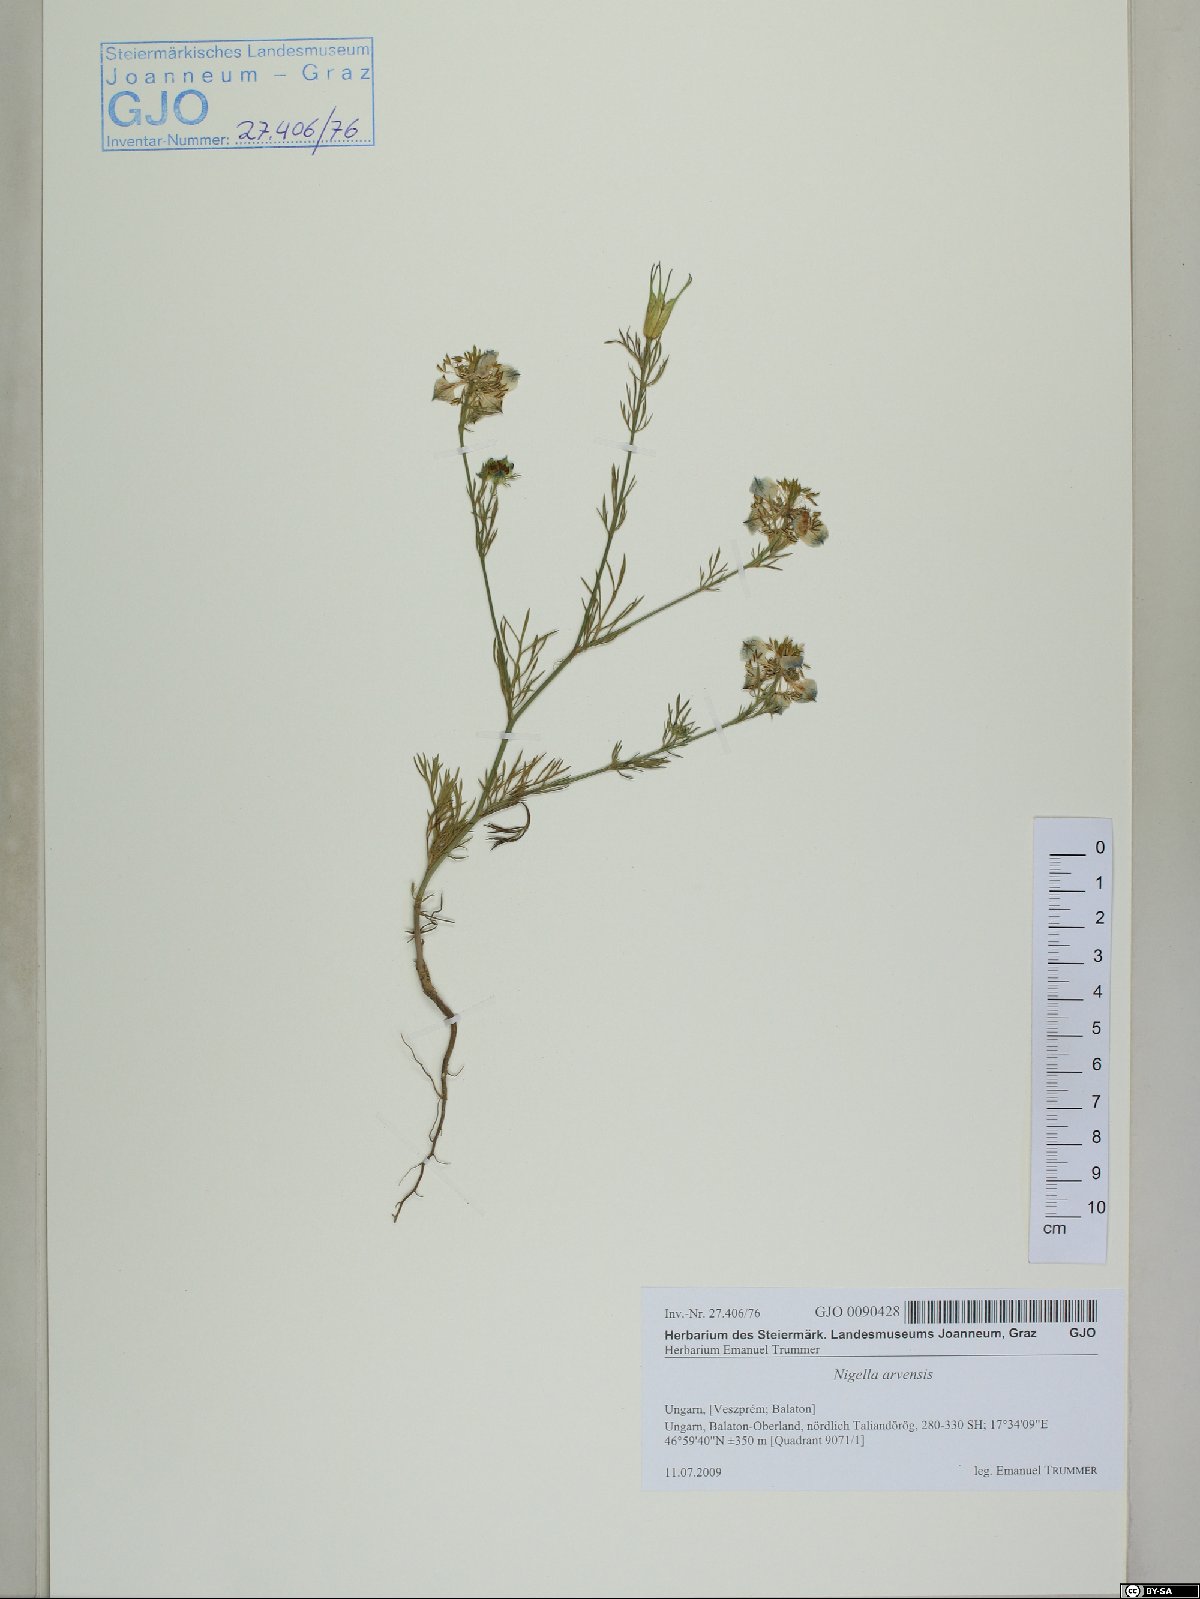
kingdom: Plantae
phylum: Tracheophyta
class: Magnoliopsida
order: Ranunculales
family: Ranunculaceae
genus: Nigella
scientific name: Nigella arvensis
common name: Wild fennel-flower
